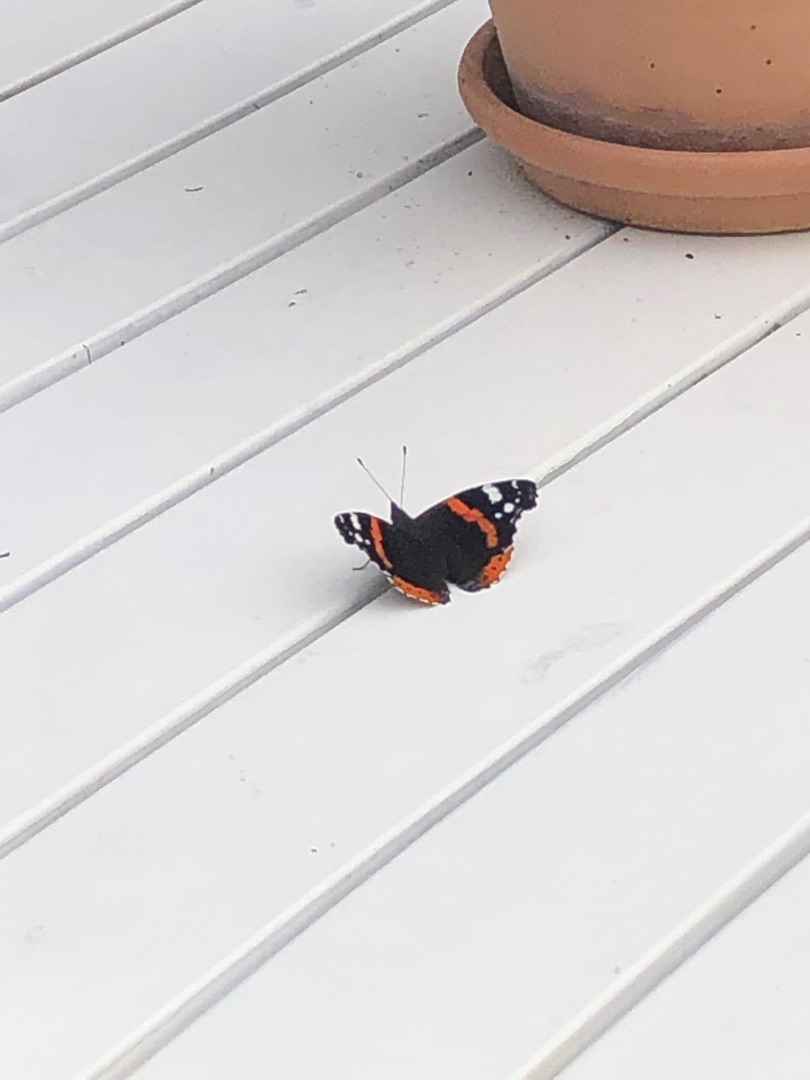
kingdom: Animalia
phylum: Arthropoda
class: Insecta
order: Lepidoptera
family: Nymphalidae
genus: Vanessa
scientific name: Vanessa atalanta
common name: Admiral
